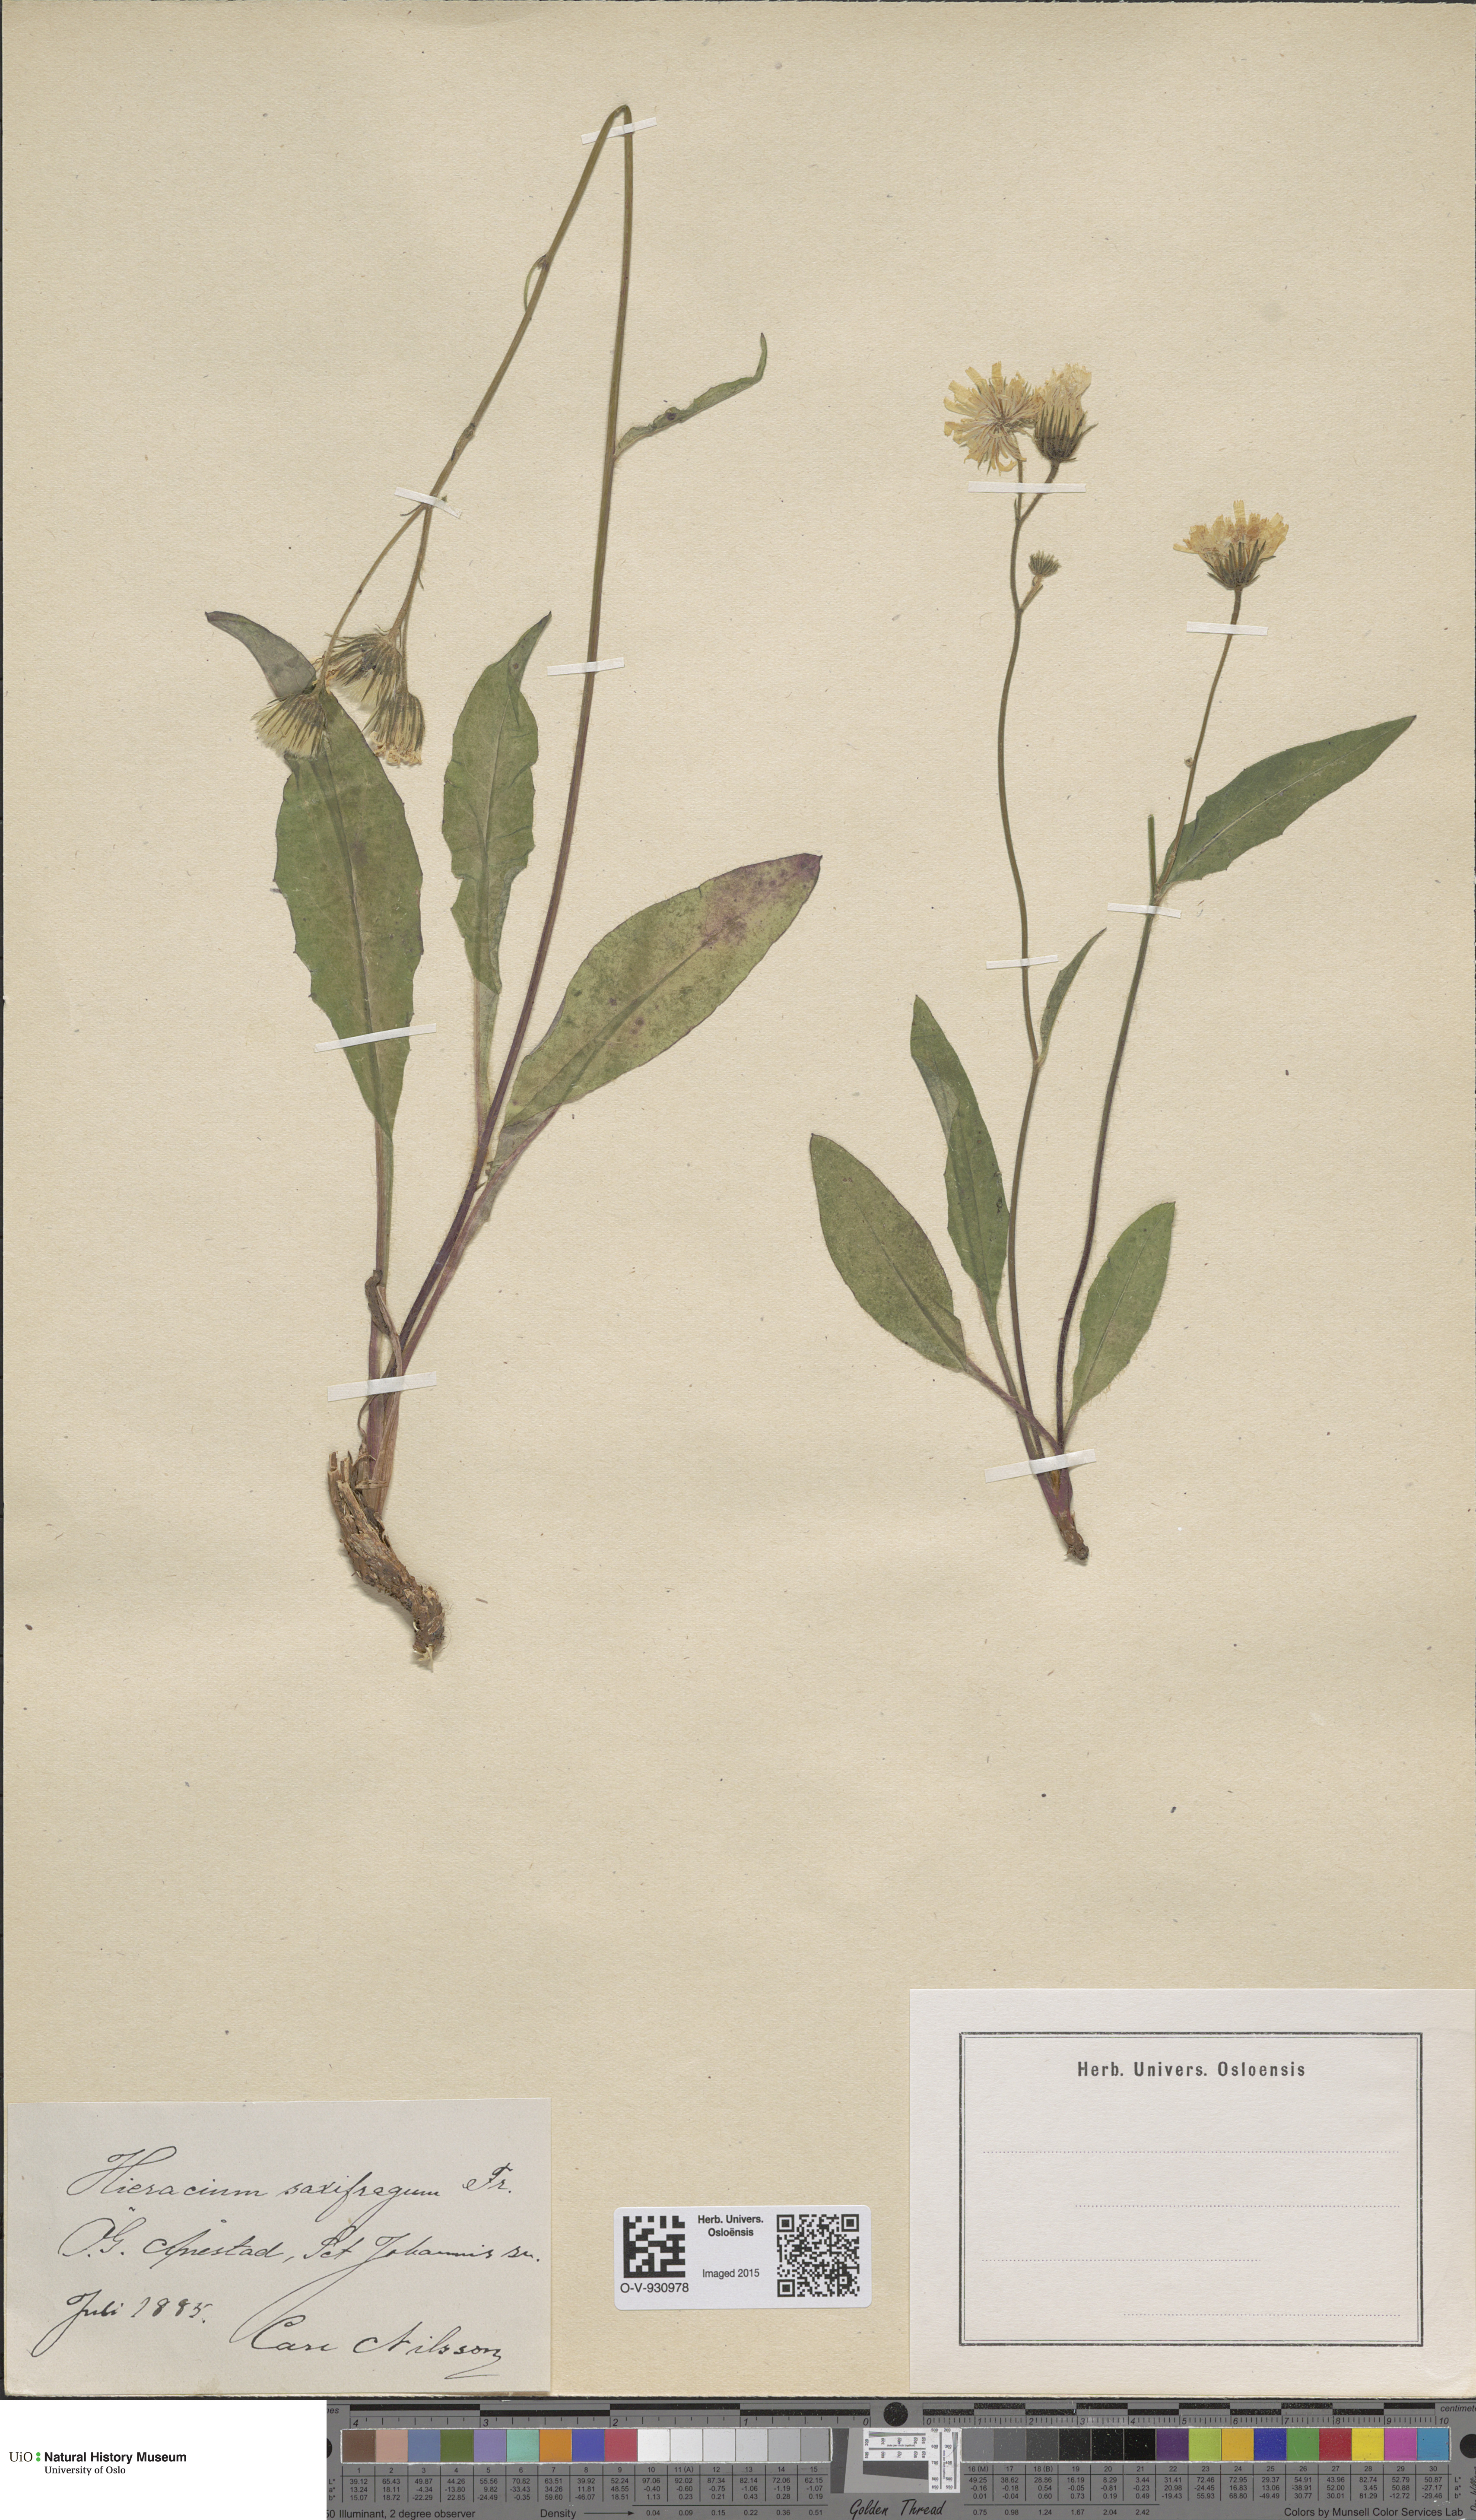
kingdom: Plantae
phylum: Tracheophyta
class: Magnoliopsida
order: Asterales
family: Asteraceae
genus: Hieracium
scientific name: Hieracium saxifragum
